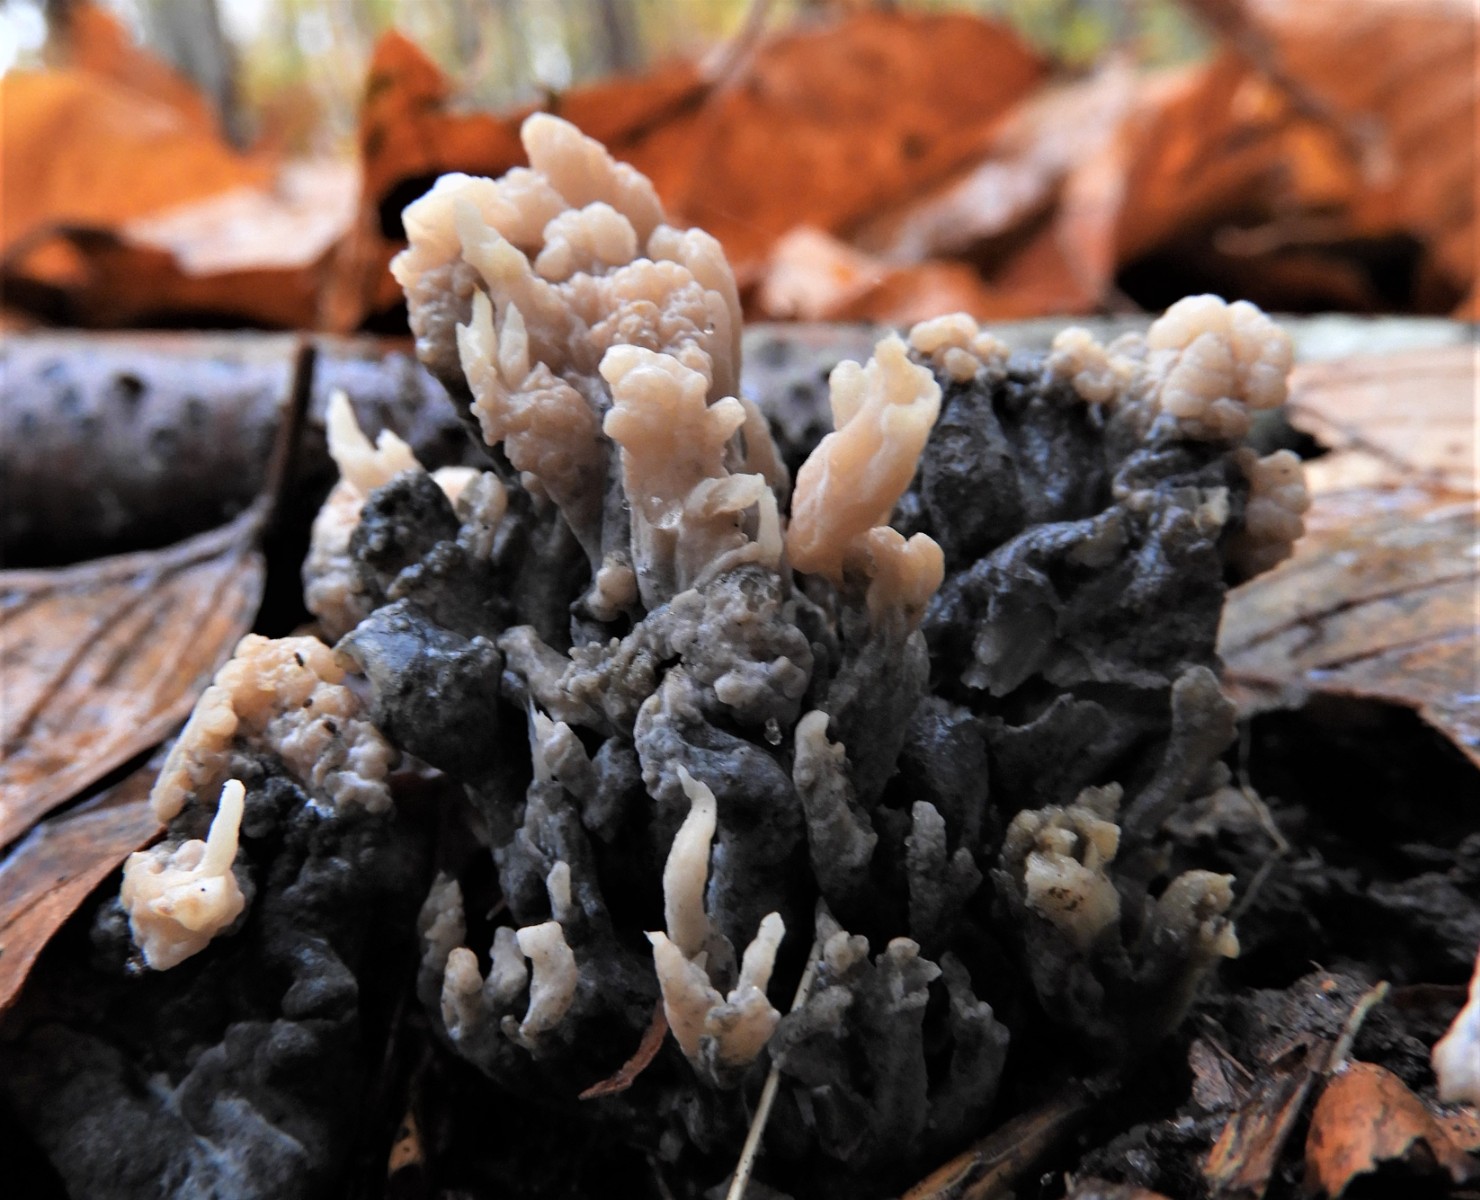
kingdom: Fungi
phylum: Ascomycota
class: Sordariomycetes
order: Sordariales
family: Helminthosphaeriaceae
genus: Helminthosphaeria
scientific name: Helminthosphaeria clavariarum
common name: trold-svampesnyltekerne
